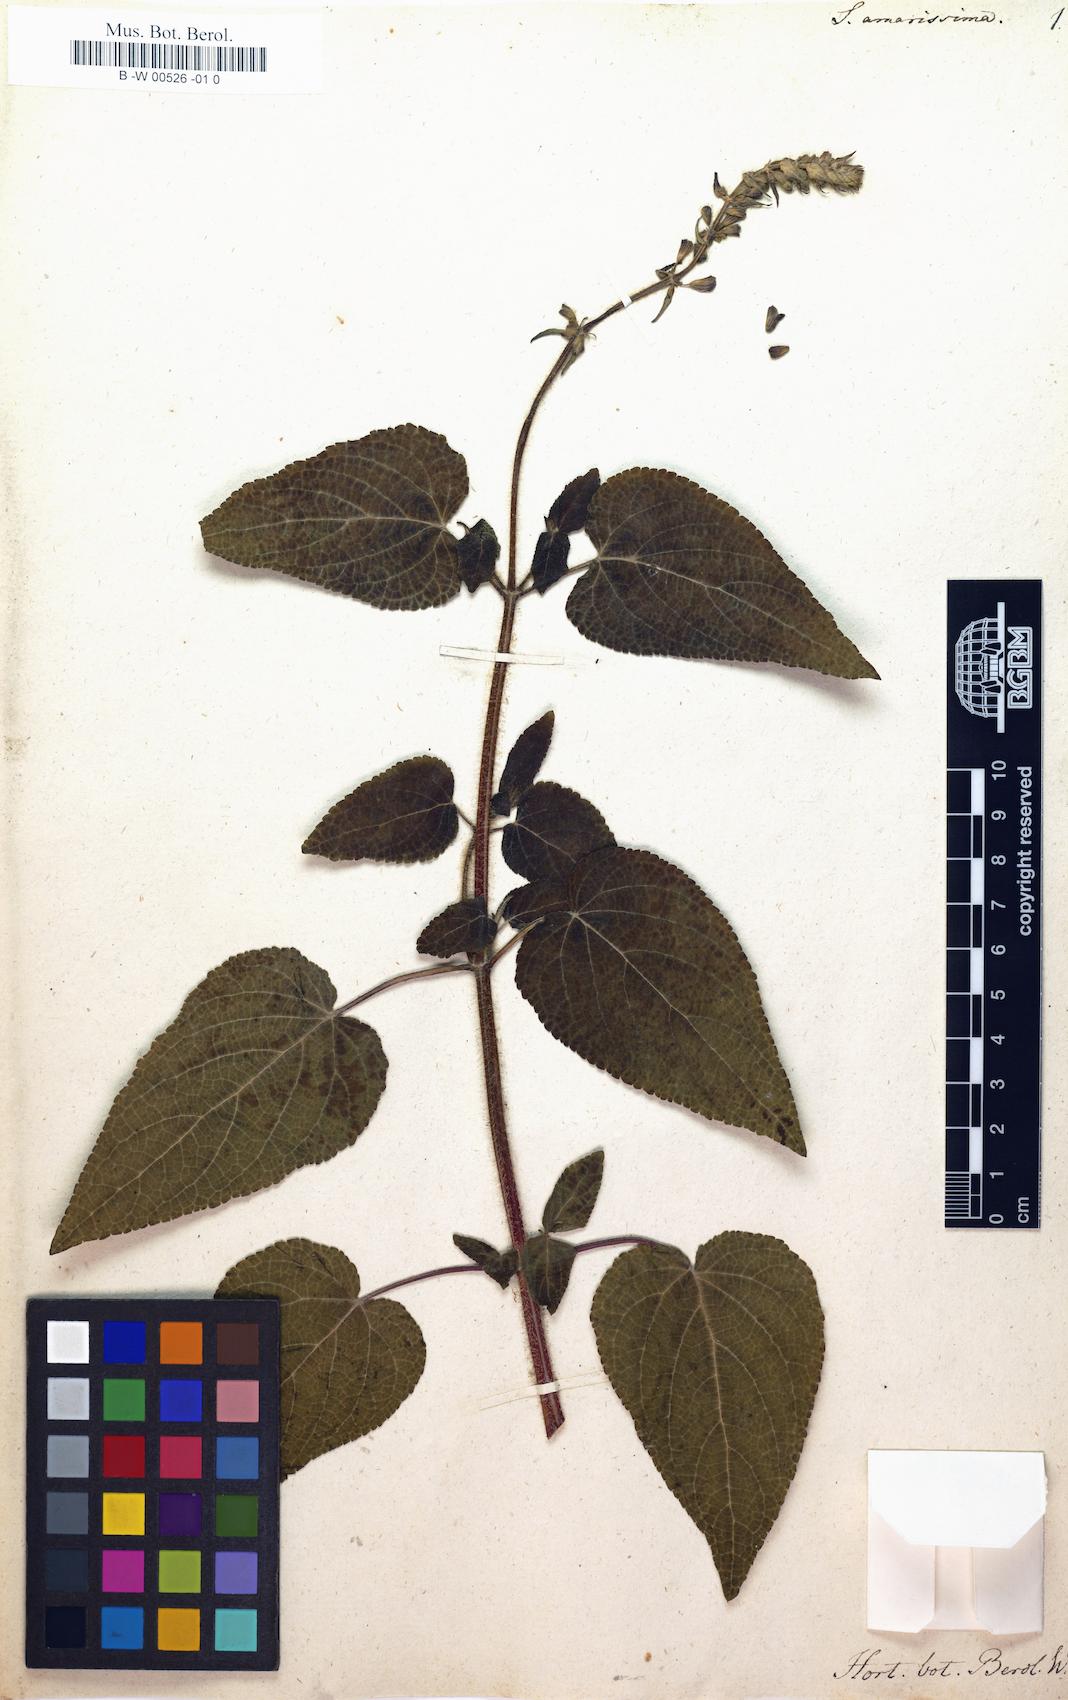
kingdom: Plantae
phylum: Tracheophyta
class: Magnoliopsida
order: Lamiales
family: Lamiaceae
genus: Salvia
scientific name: Salvia circinnata
